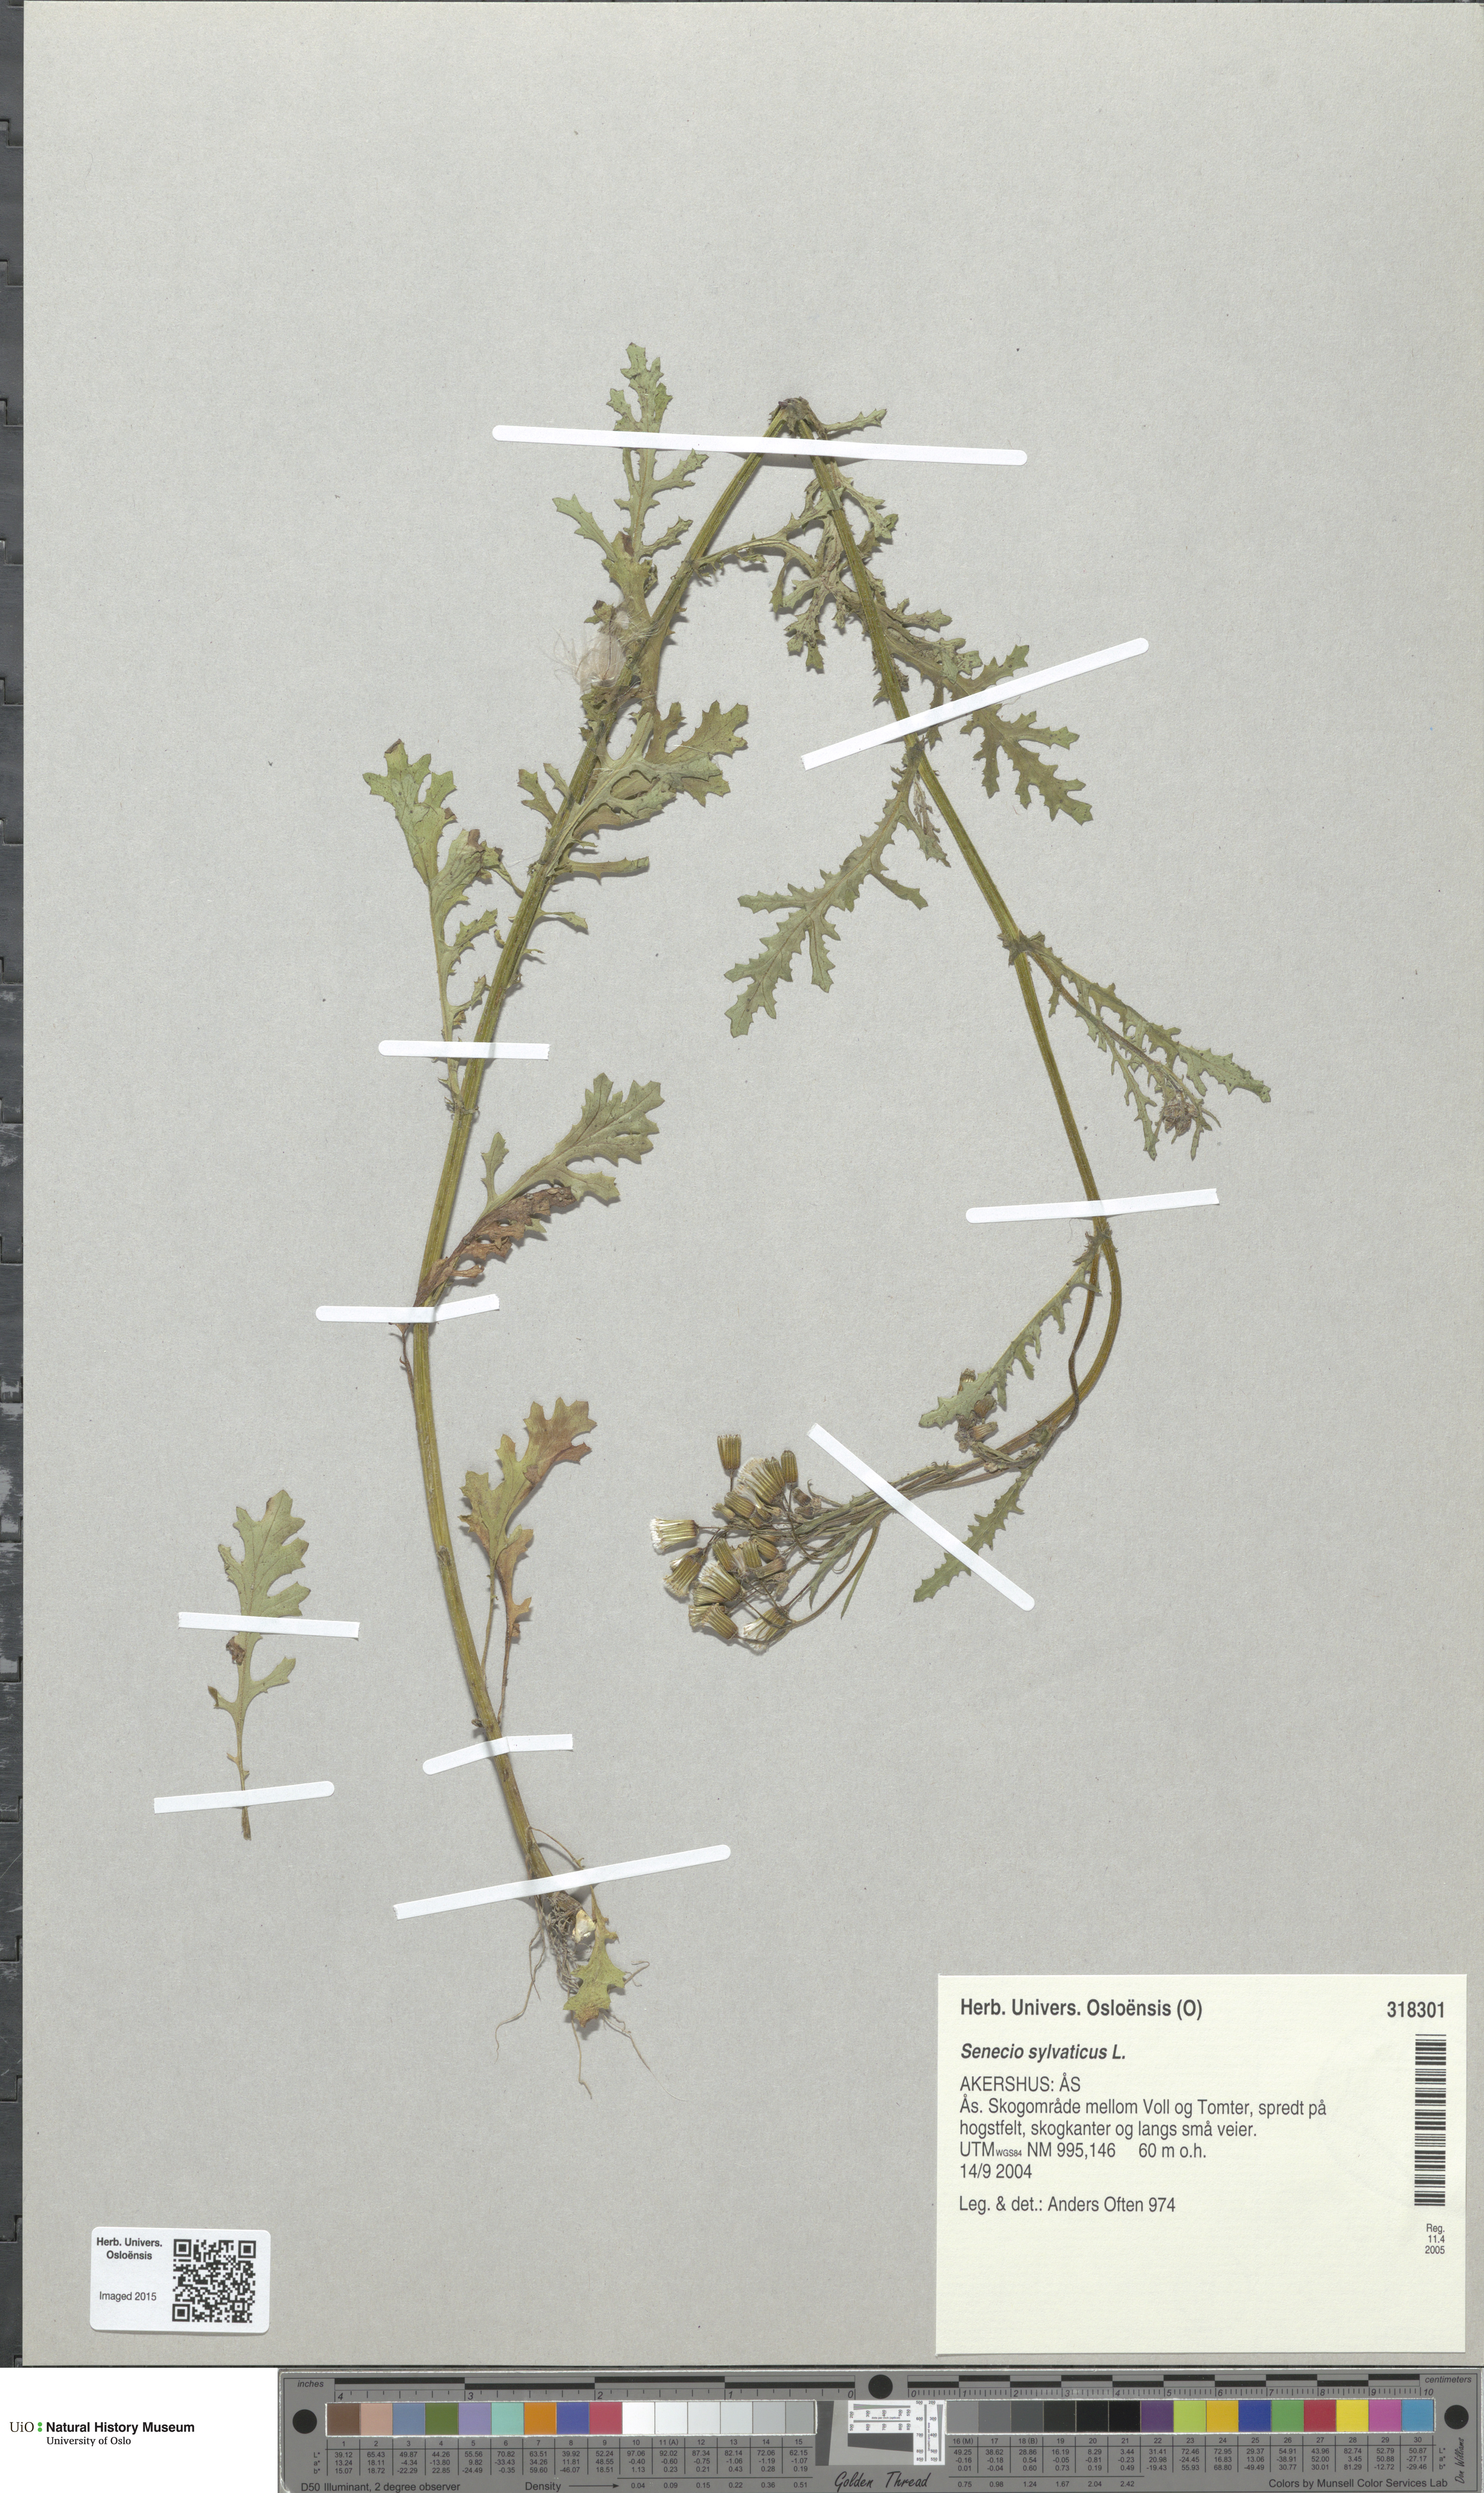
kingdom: Plantae
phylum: Tracheophyta
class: Magnoliopsida
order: Asterales
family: Asteraceae
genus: Senecio
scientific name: Senecio sylvaticus
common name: Woodland ragwort
